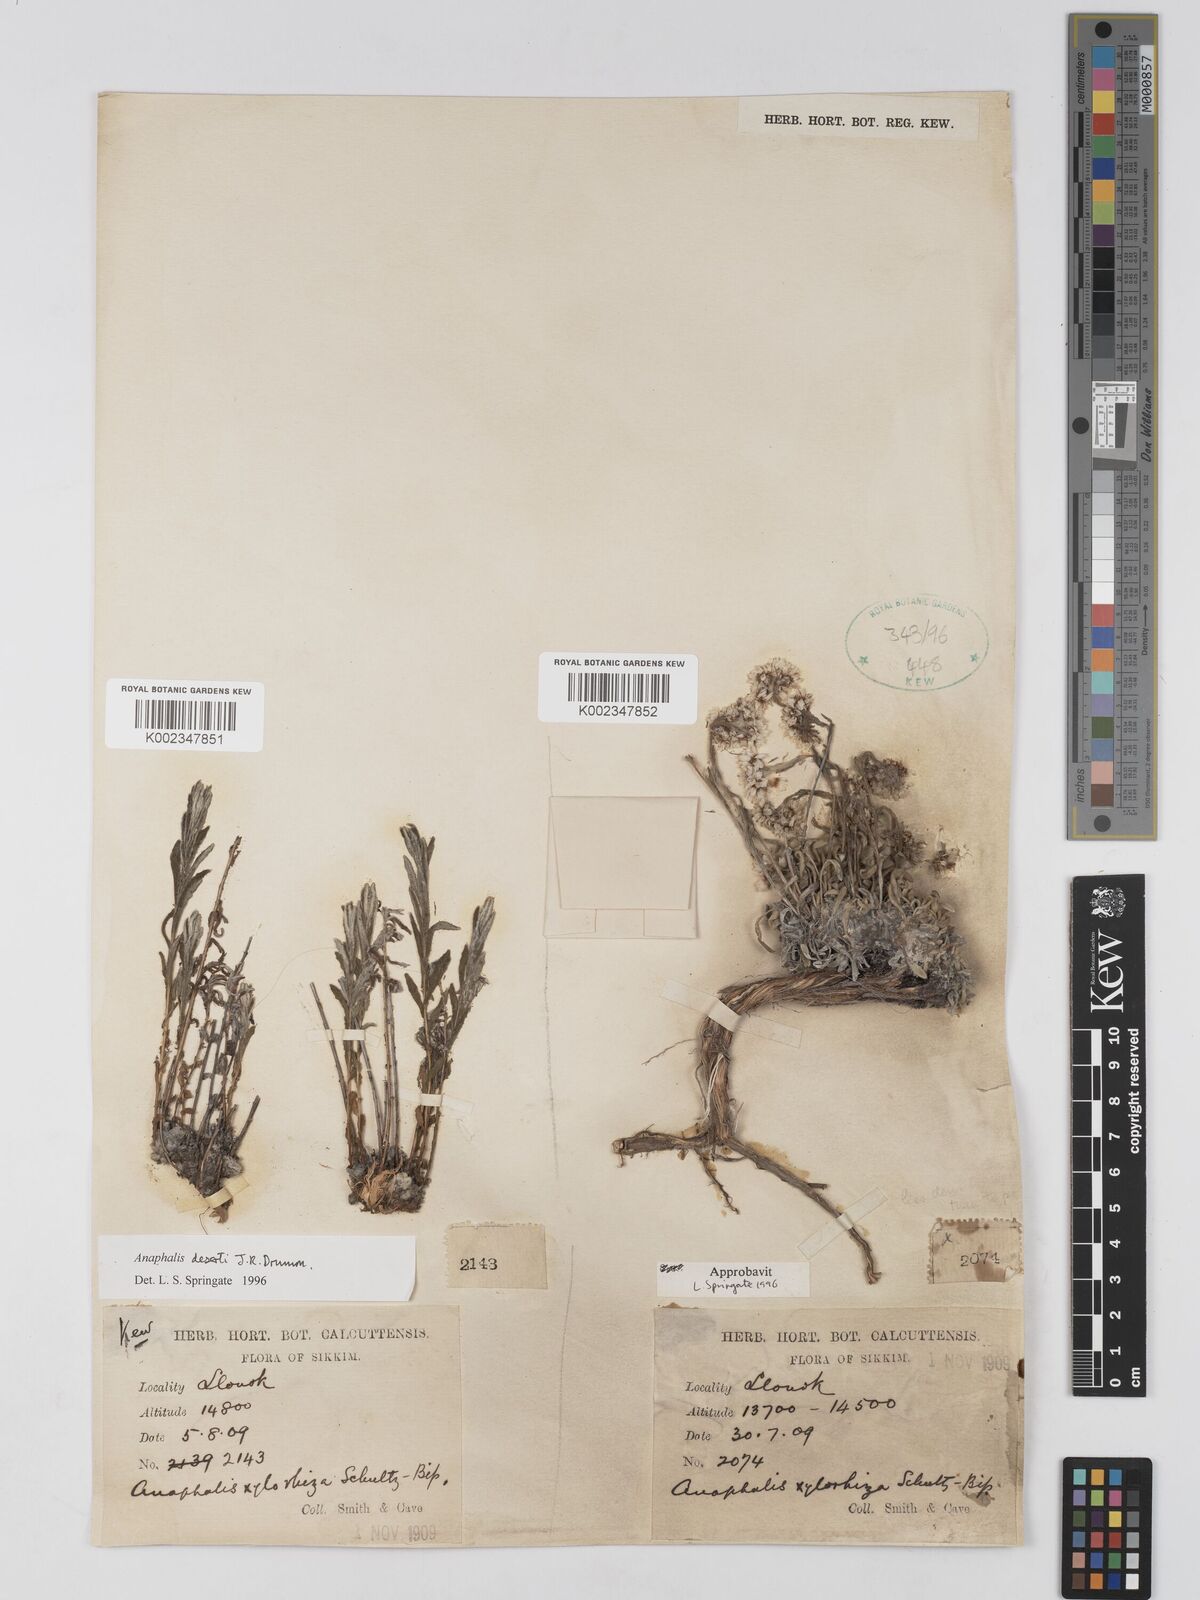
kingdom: Plantae
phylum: Tracheophyta
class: Magnoliopsida
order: Asterales
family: Asteraceae
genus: Anaphalis
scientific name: Anaphalis deserti
